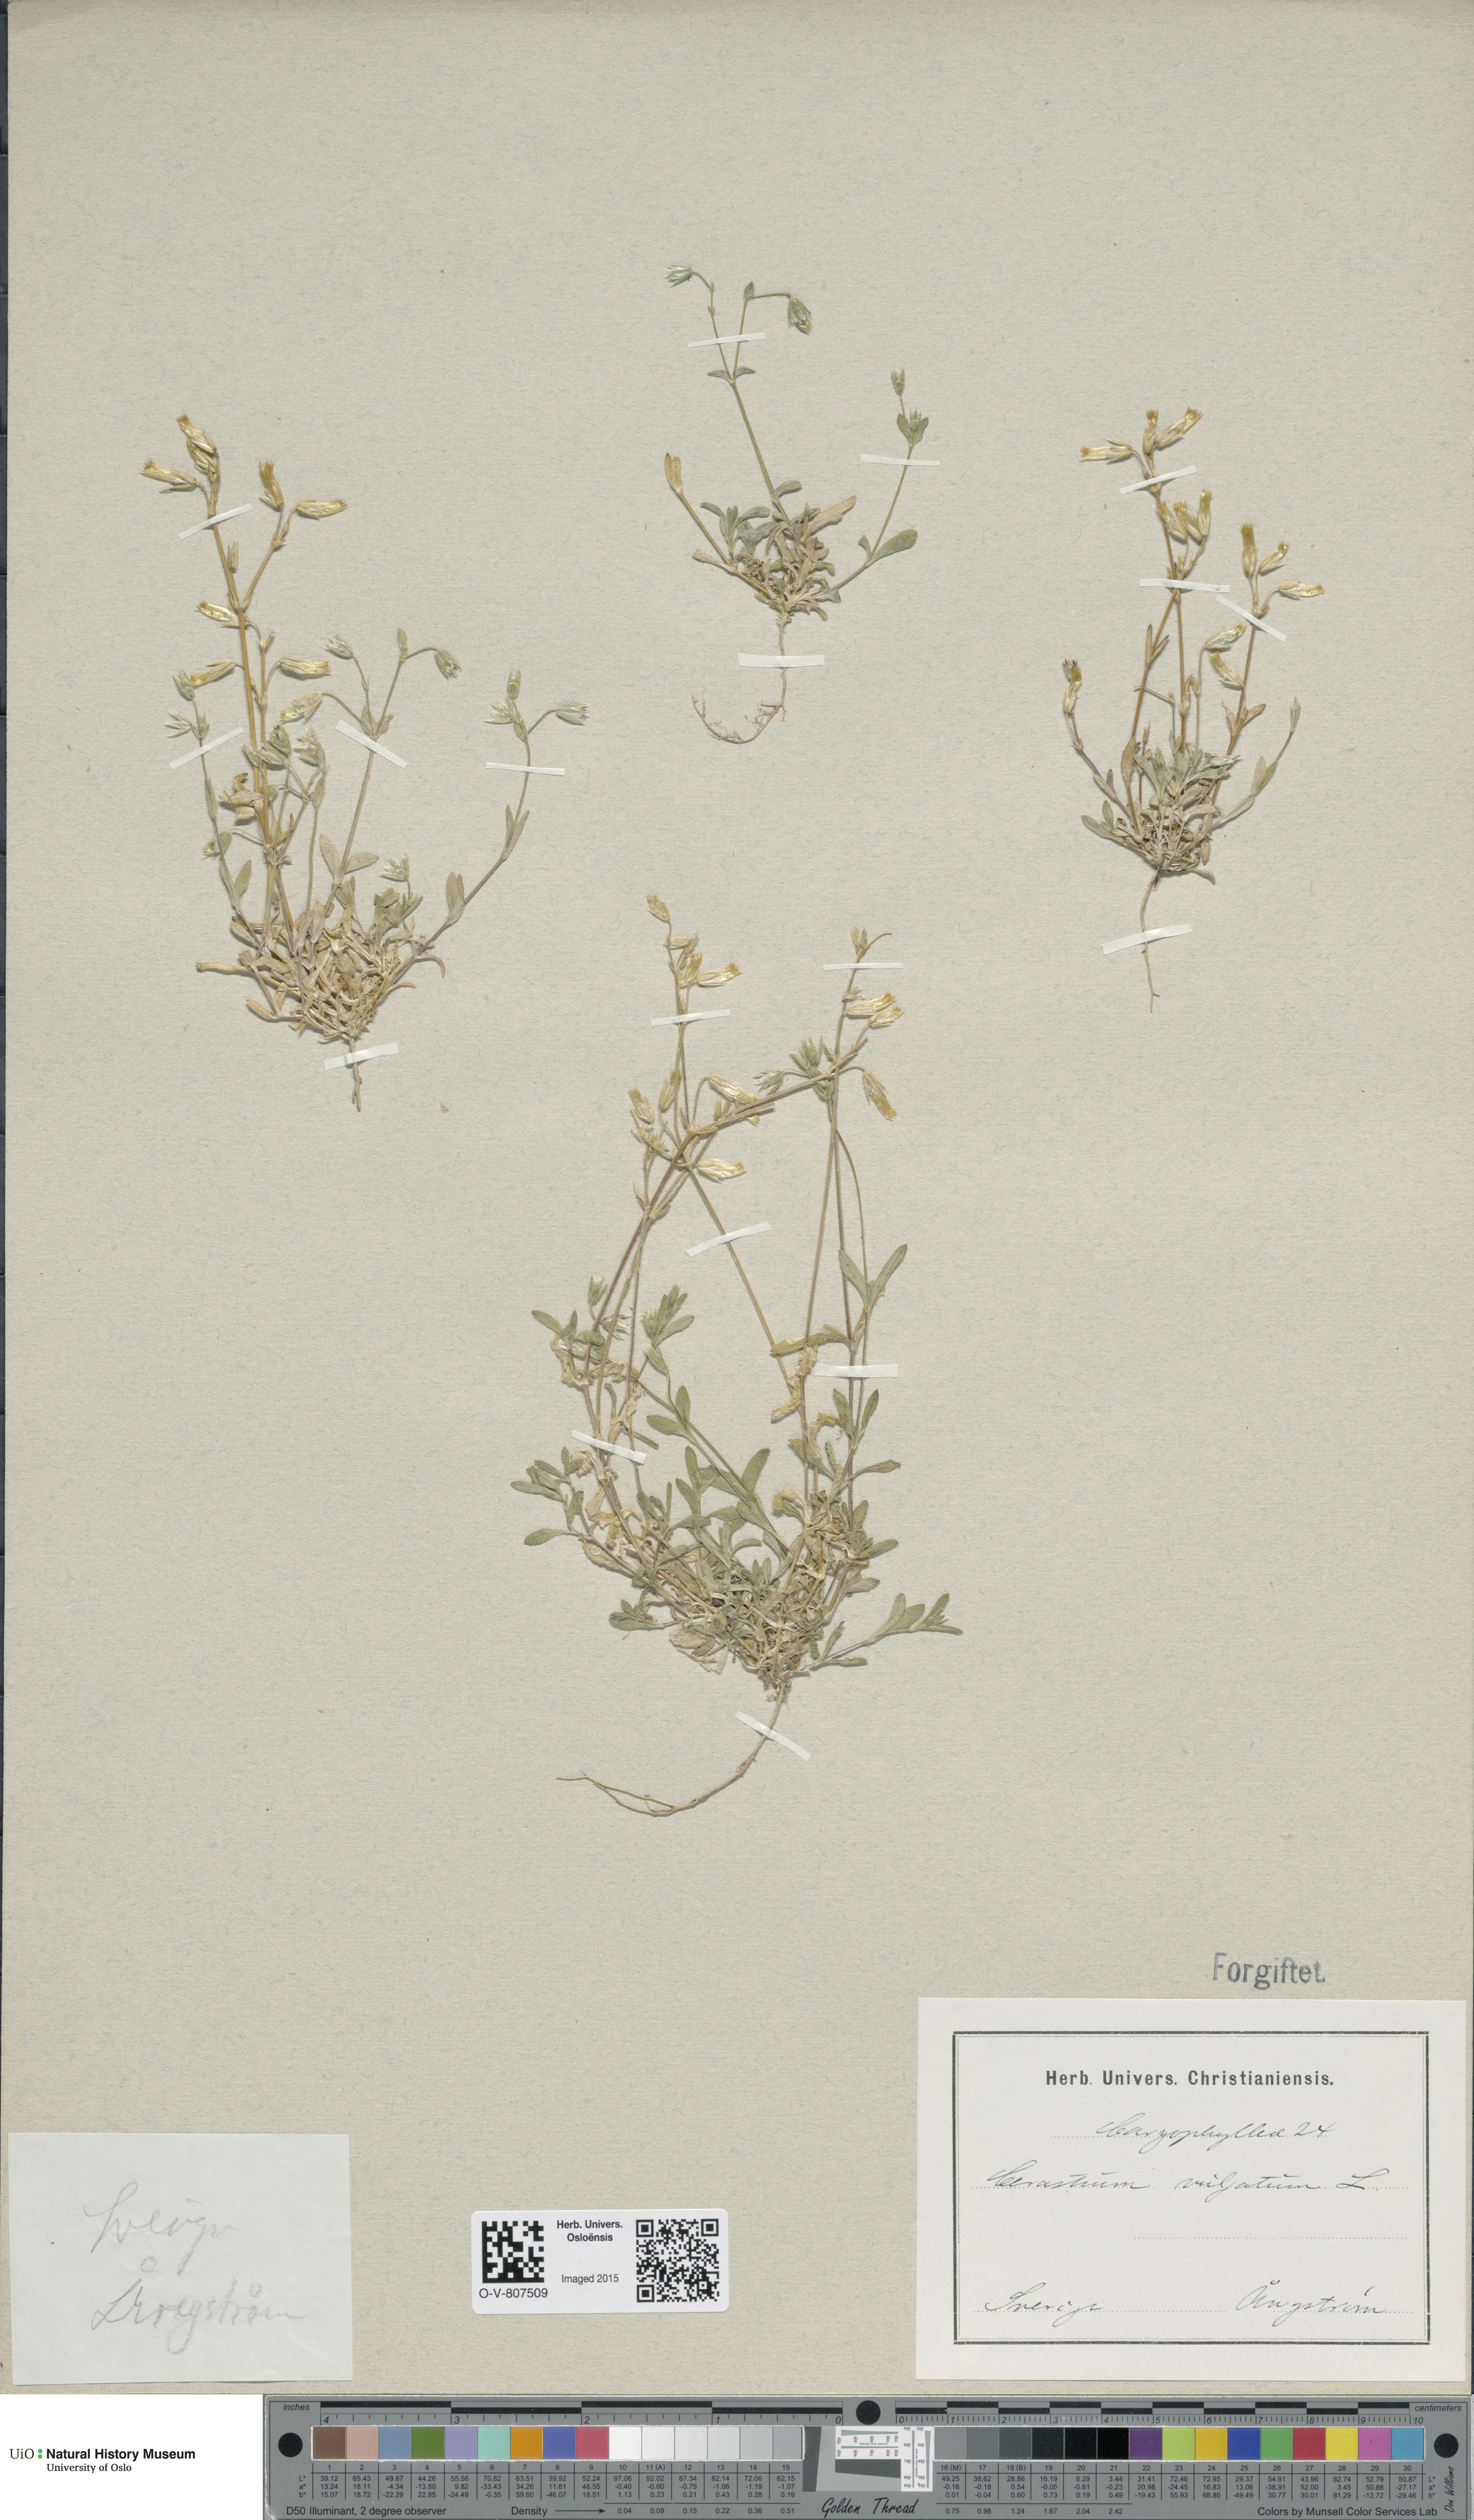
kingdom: Plantae
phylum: Tracheophyta
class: Magnoliopsida
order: Caryophyllales
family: Caryophyllaceae
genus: Cerastium
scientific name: Cerastium holosteoides
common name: Big chickweed
